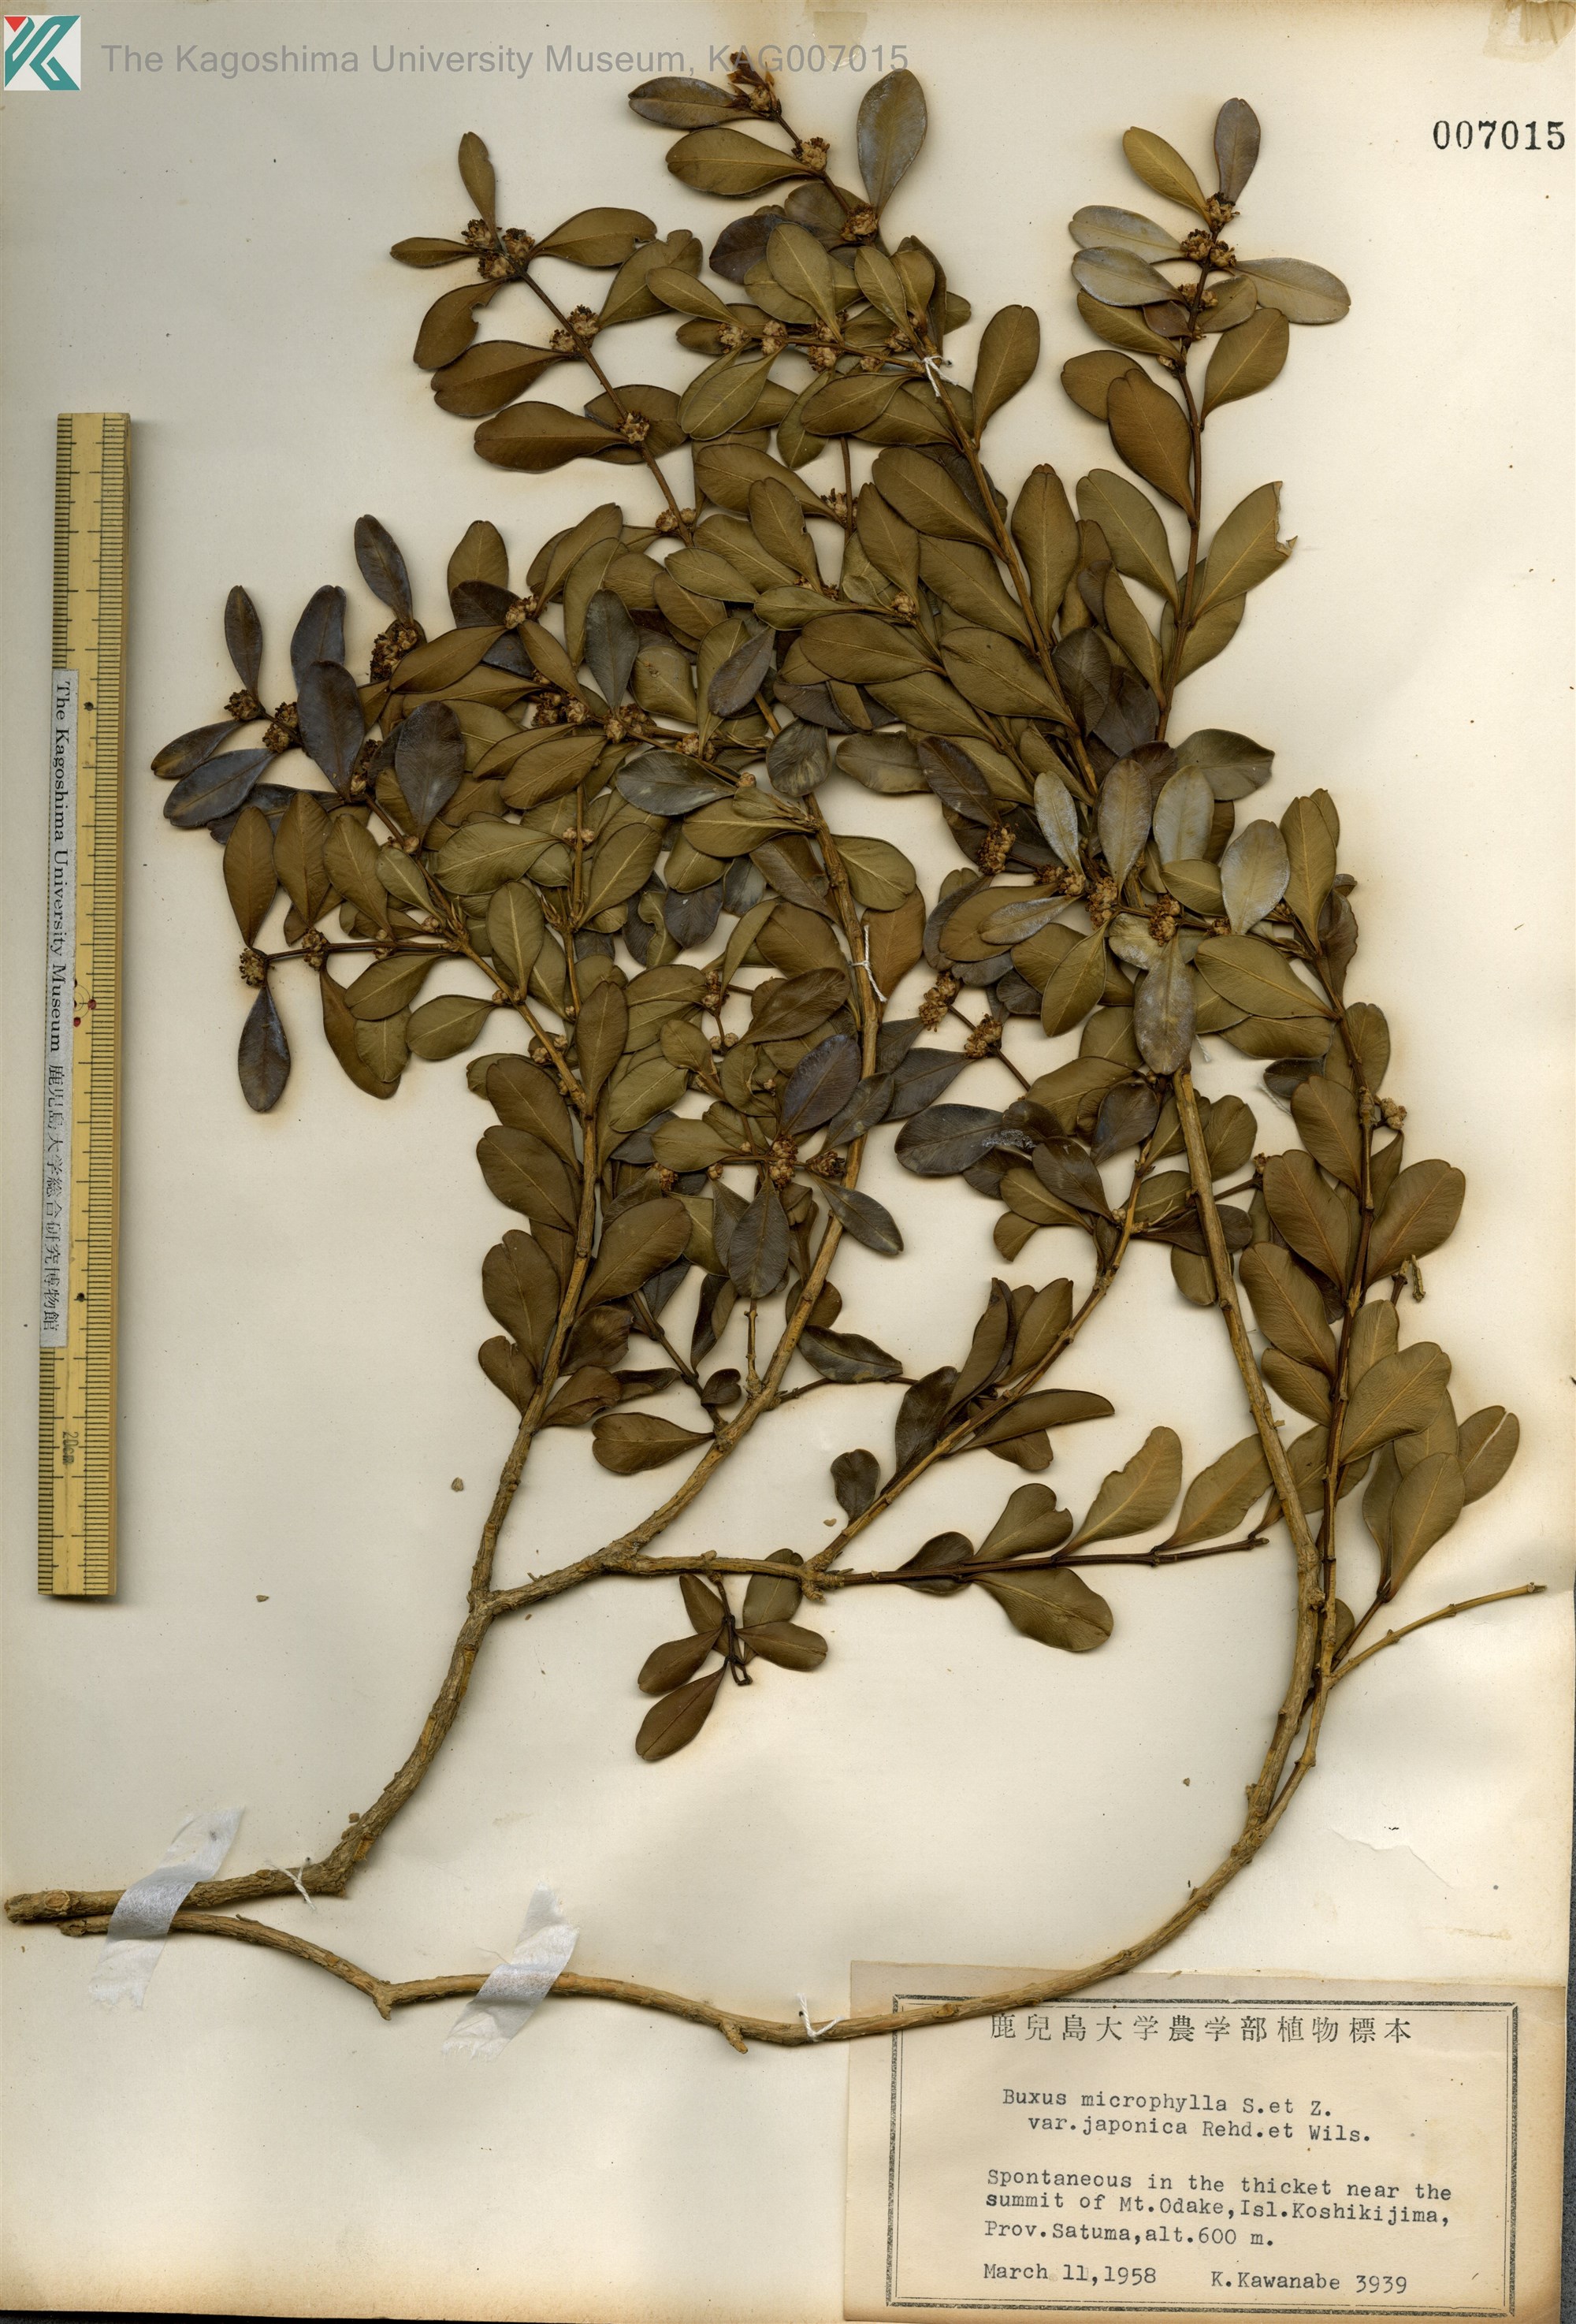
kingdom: Plantae
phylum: Tracheophyta
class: Magnoliopsida
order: Buxales
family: Buxaceae
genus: Buxus
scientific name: Buxus microphylla
